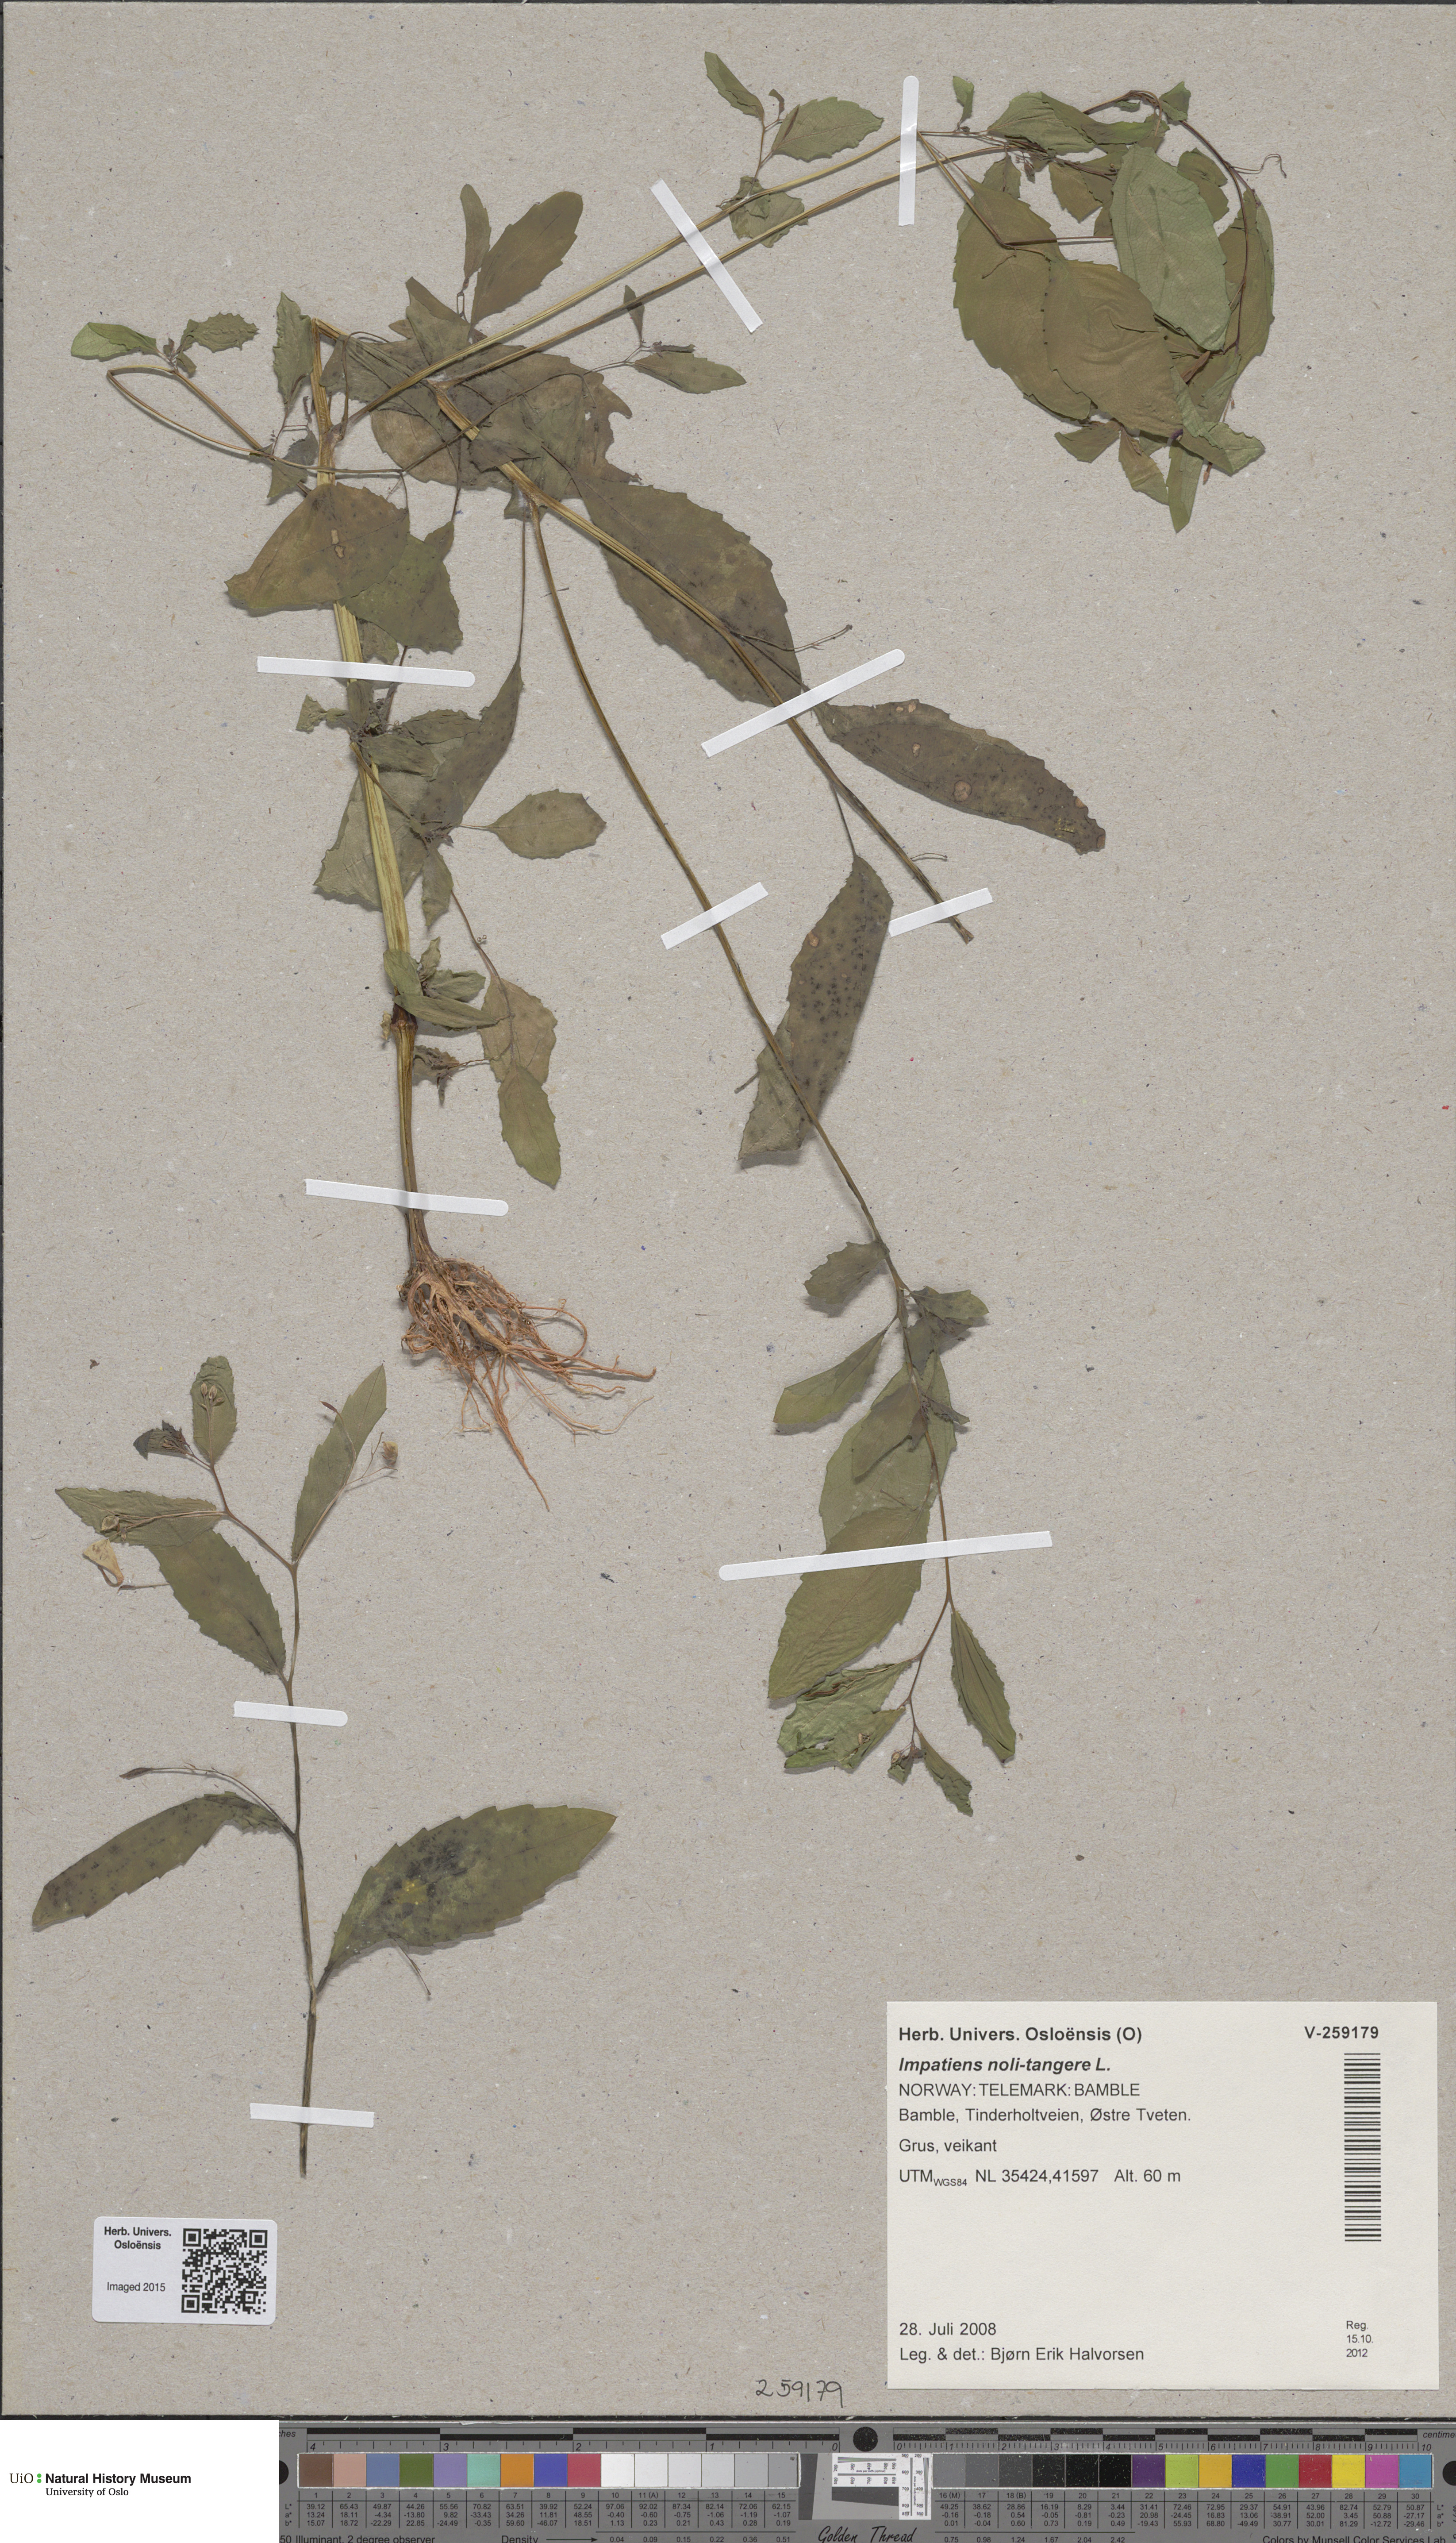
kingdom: Plantae
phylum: Tracheophyta
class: Magnoliopsida
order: Ericales
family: Balsaminaceae
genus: Impatiens
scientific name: Impatiens noli-tangere
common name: Touch-me-not balsam
